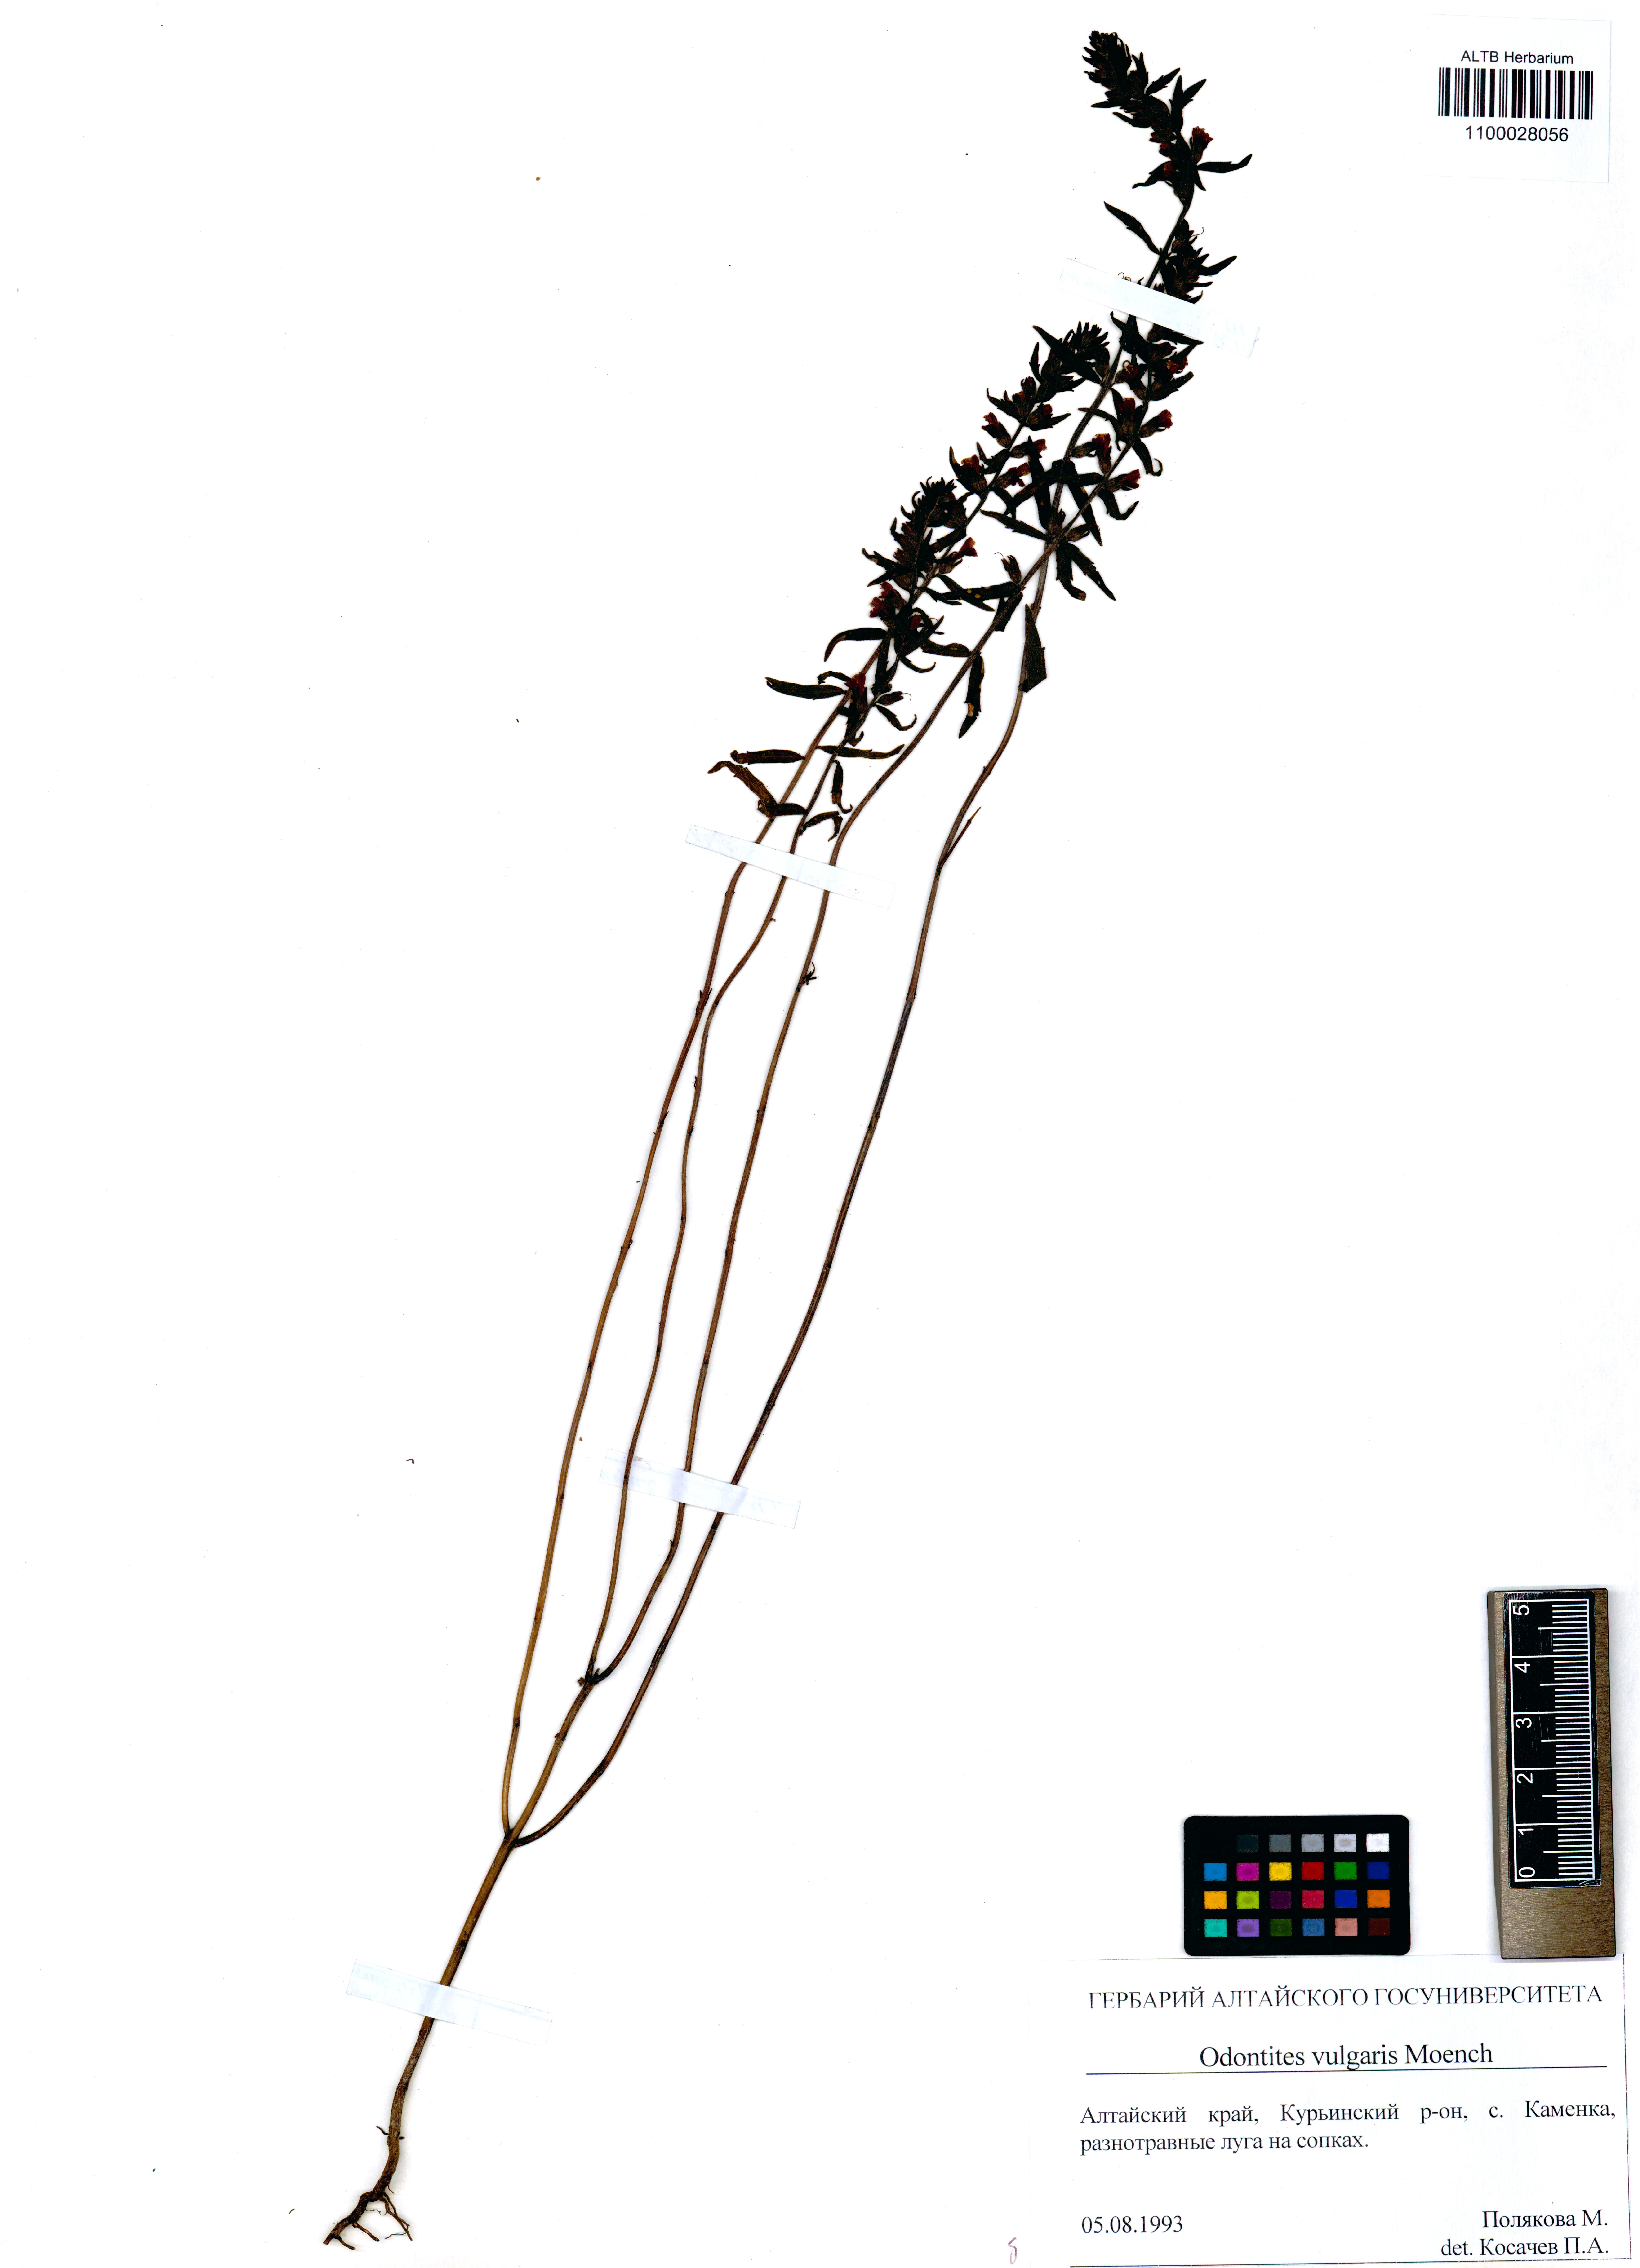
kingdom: Plantae
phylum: Tracheophyta
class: Magnoliopsida
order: Lamiales
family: Orobanchaceae
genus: Odontites
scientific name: Odontites vulgaris
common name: Broomrape
